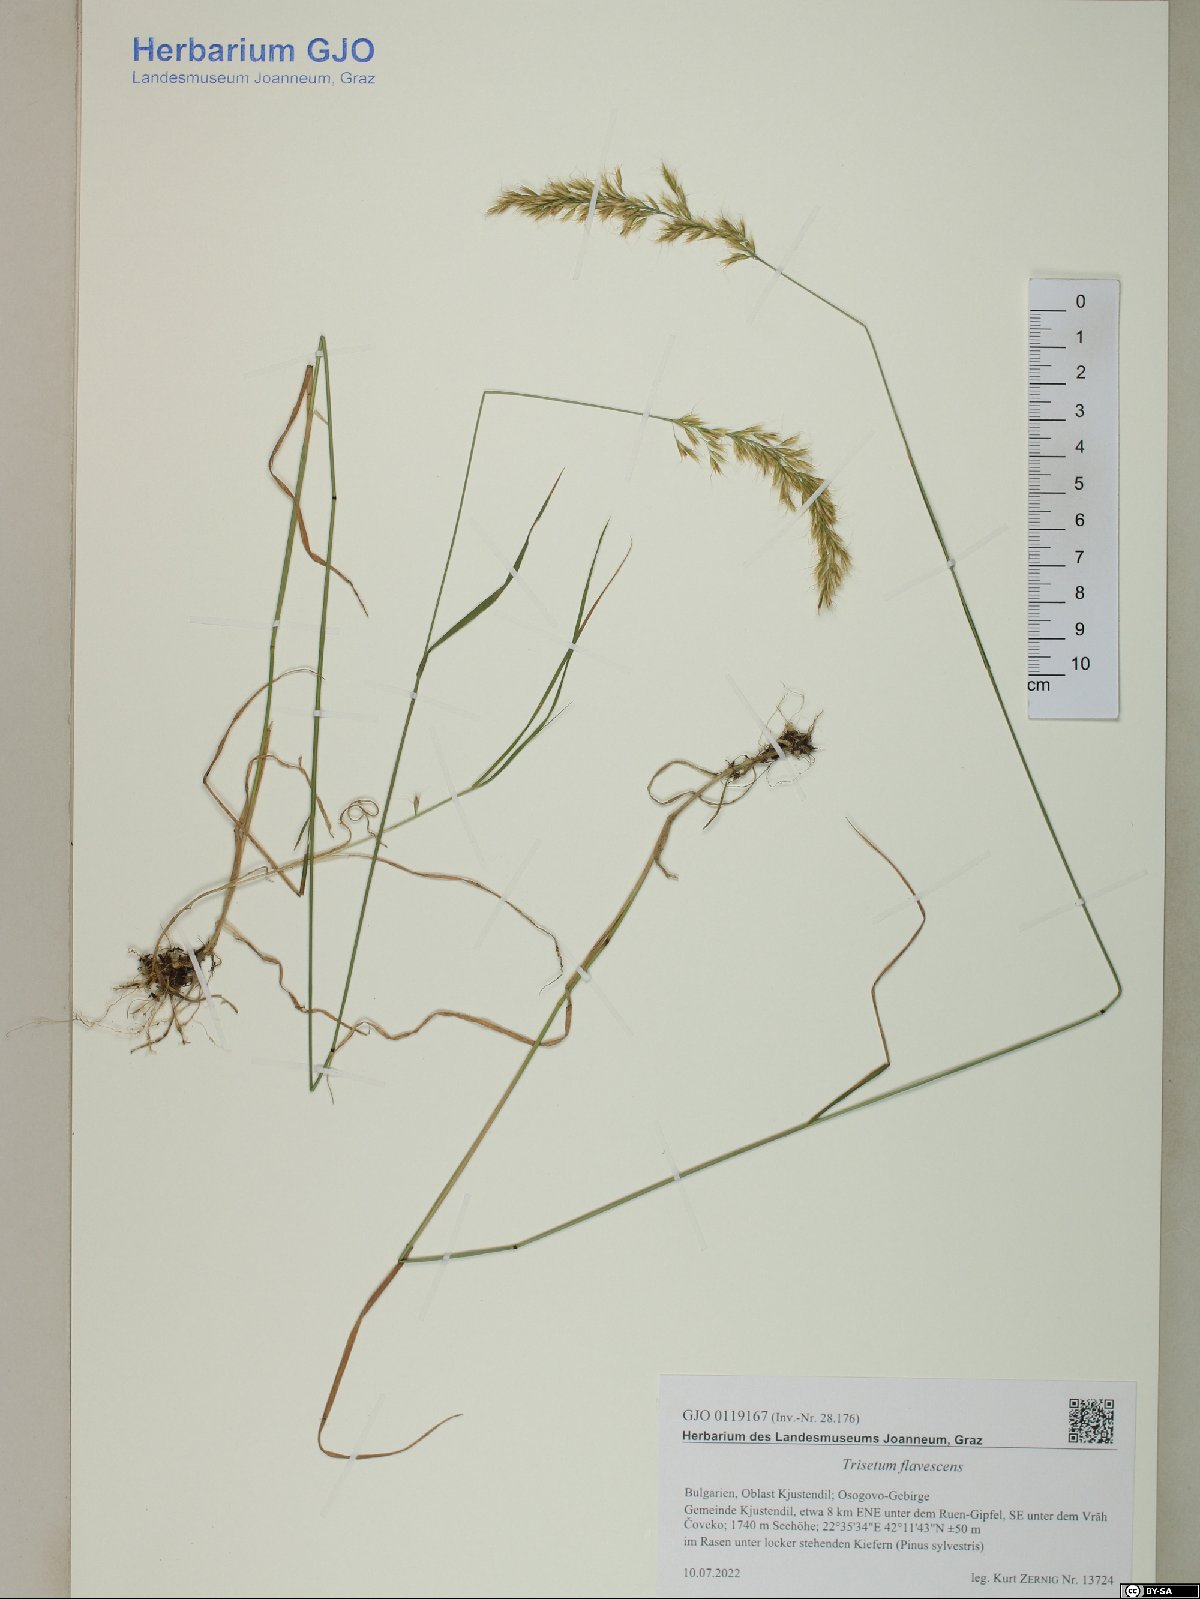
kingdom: Plantae
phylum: Tracheophyta
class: Liliopsida
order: Poales
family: Poaceae
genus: Trisetum
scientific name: Trisetum flavescens
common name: Yellow oat-grass
